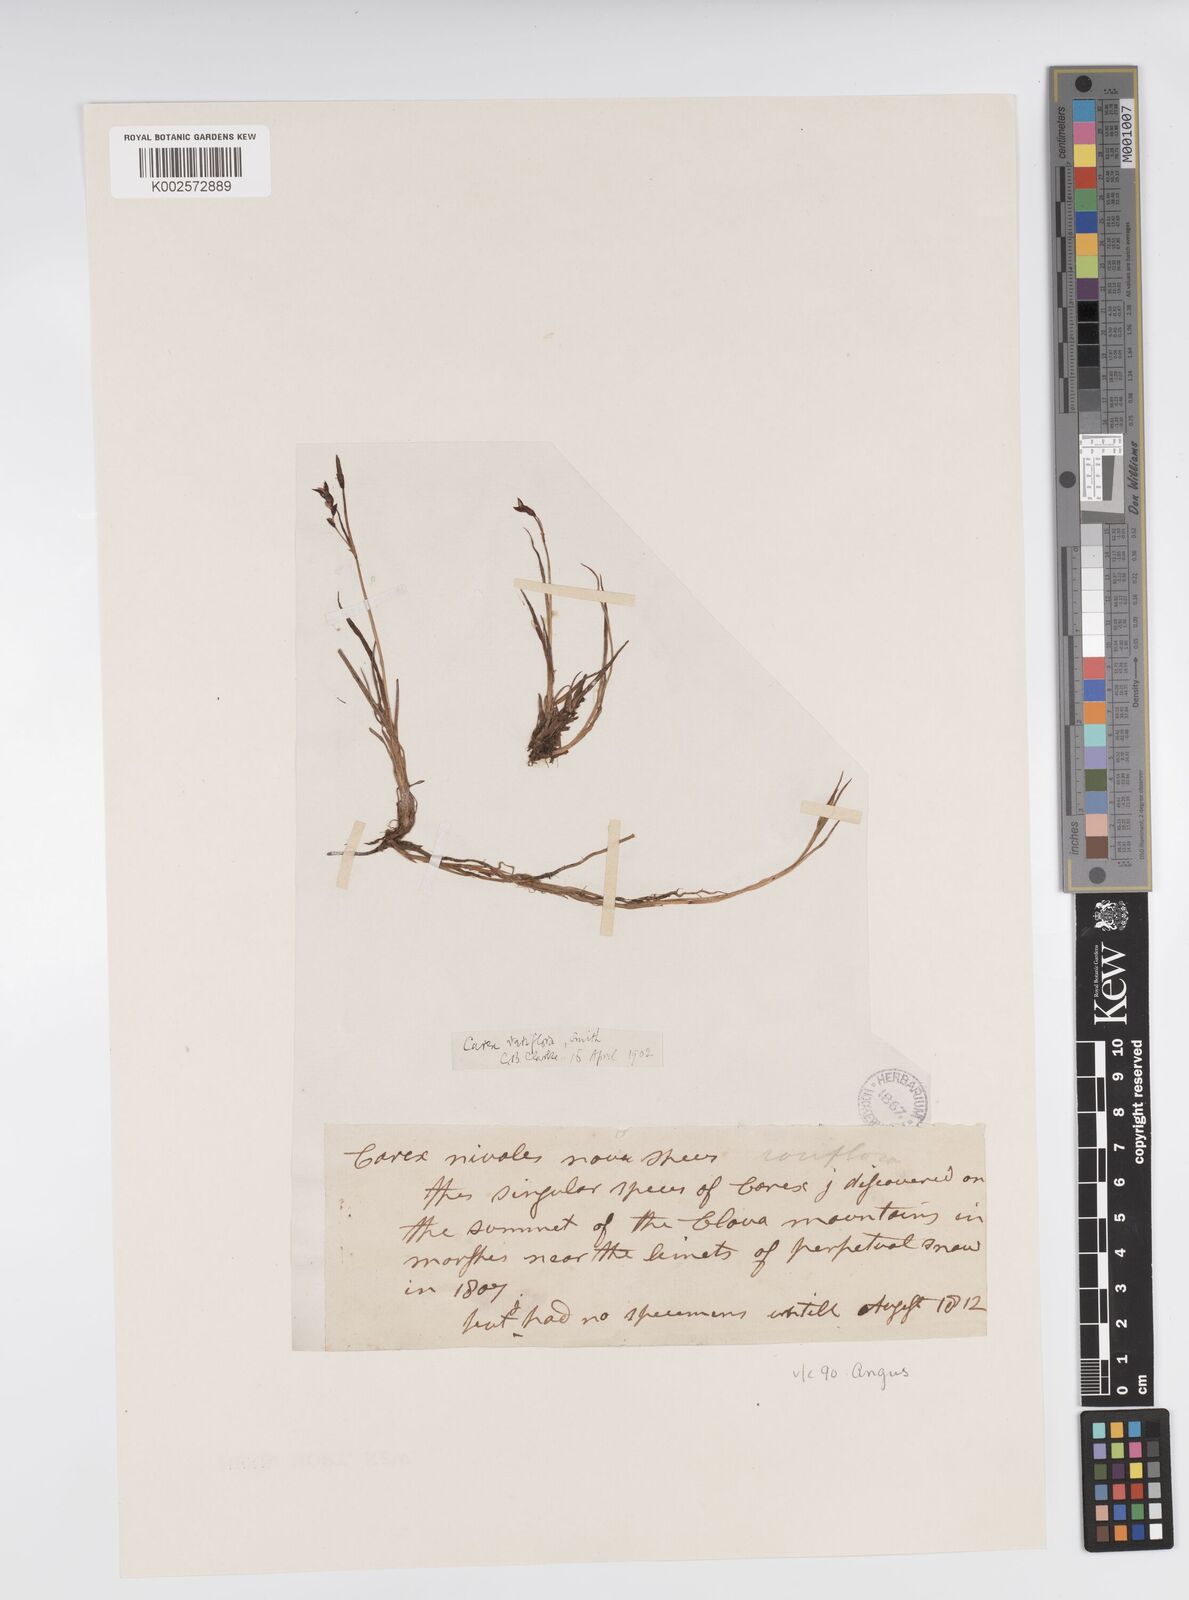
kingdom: Plantae
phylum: Tracheophyta
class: Liliopsida
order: Poales
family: Cyperaceae
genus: Carex
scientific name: Carex rariflora
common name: Loose-flowered alpine sedge
